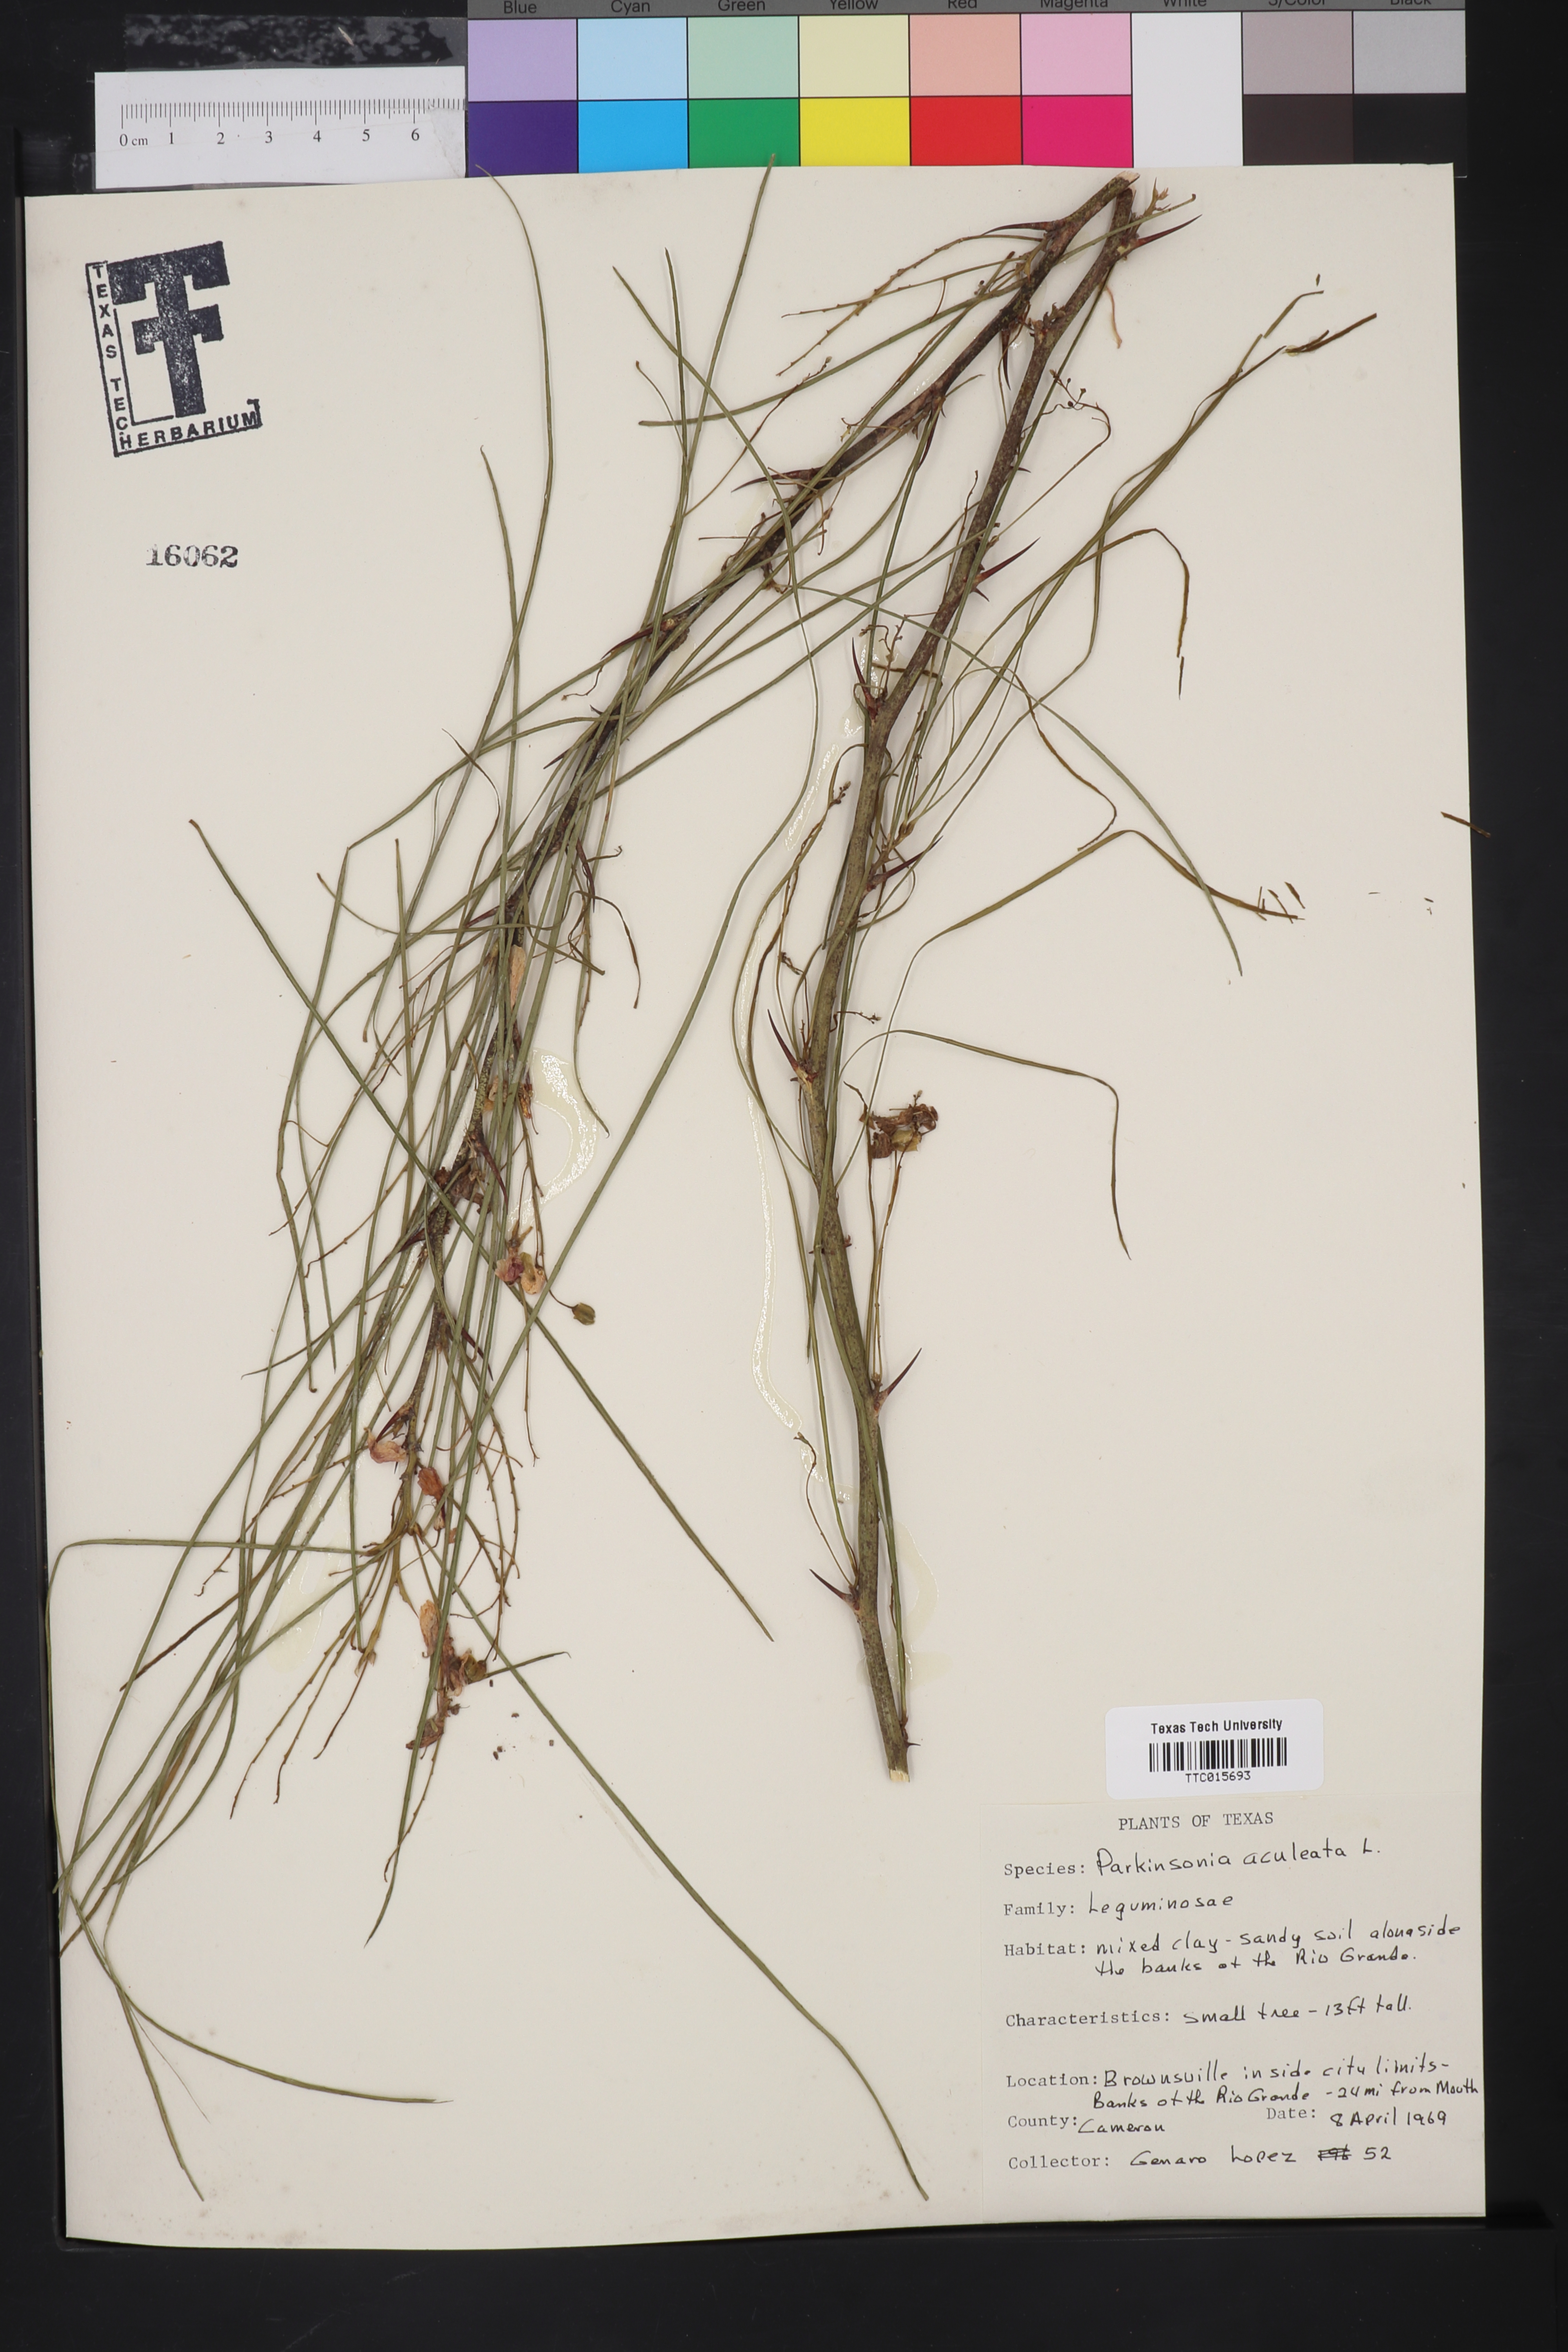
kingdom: Plantae
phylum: Tracheophyta
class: Magnoliopsida
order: Fabales
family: Fabaceae
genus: Parkinsonia
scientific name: Parkinsonia aculeata
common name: Jerusalem thorn
